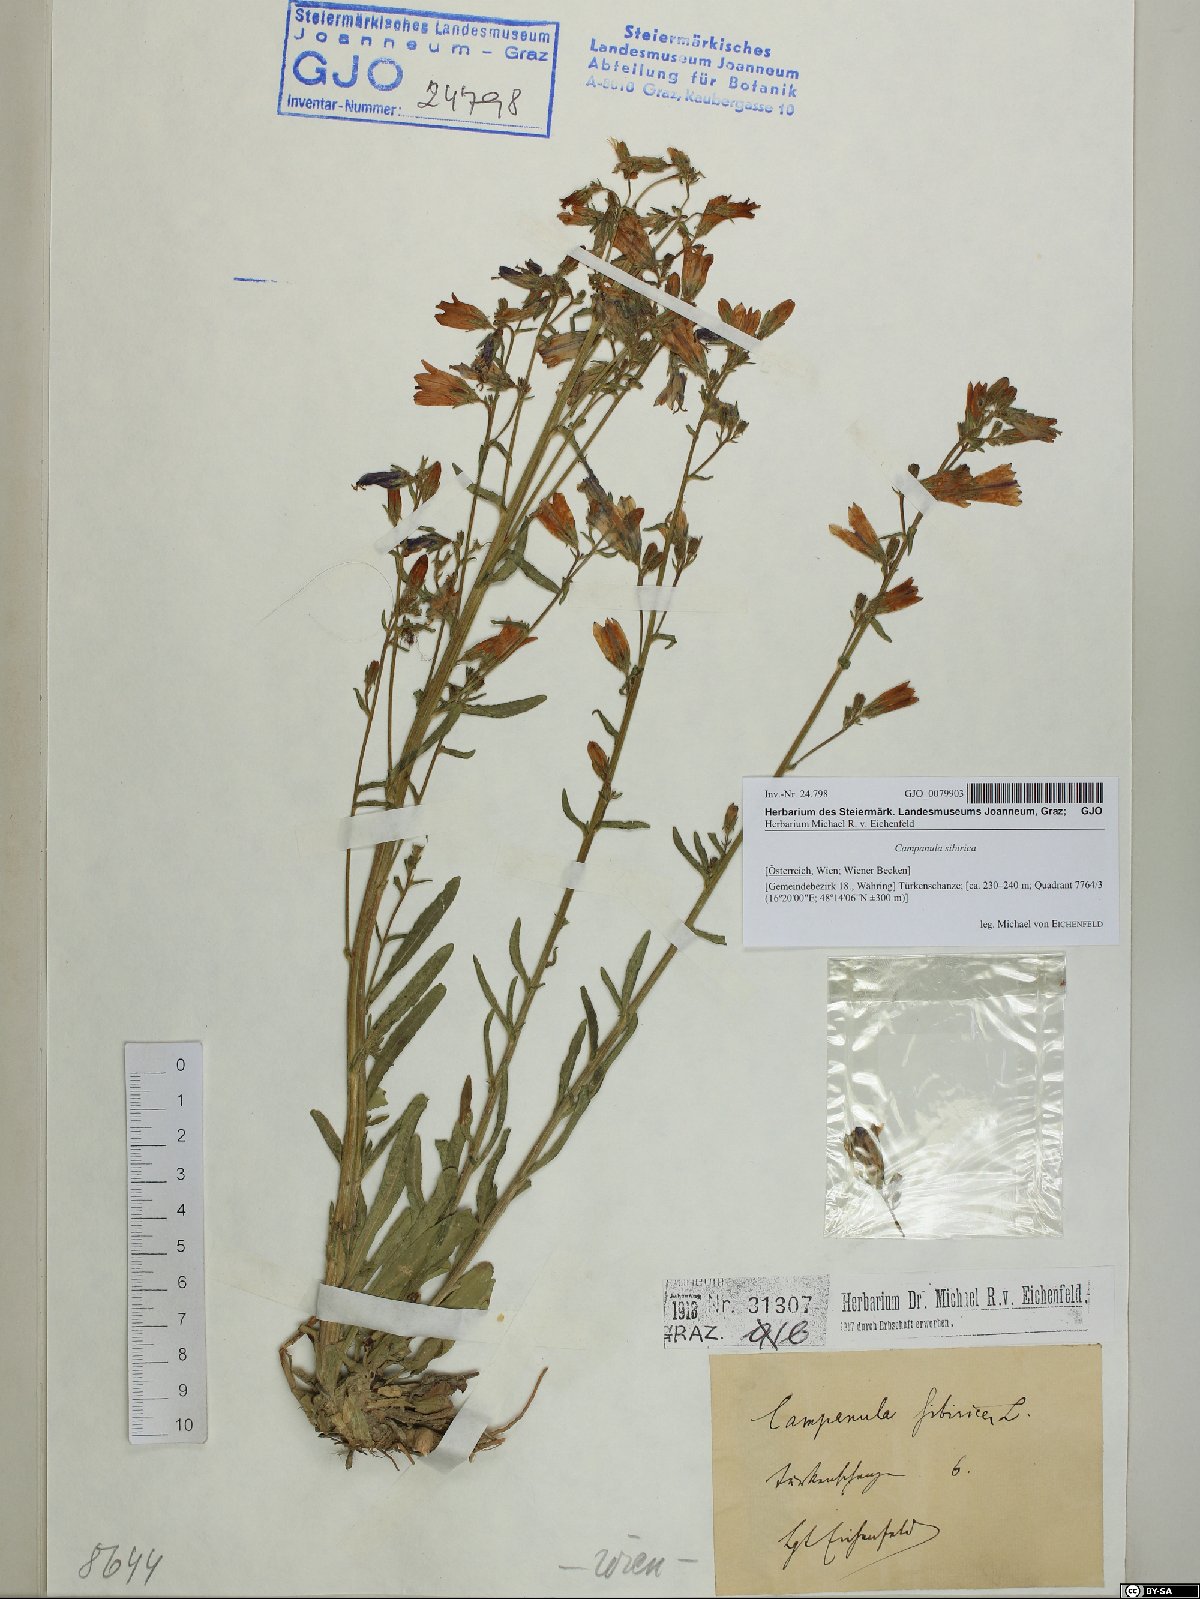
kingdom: Plantae
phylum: Tracheophyta
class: Magnoliopsida
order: Asterales
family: Campanulaceae
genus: Campanula
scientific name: Campanula sibirica
